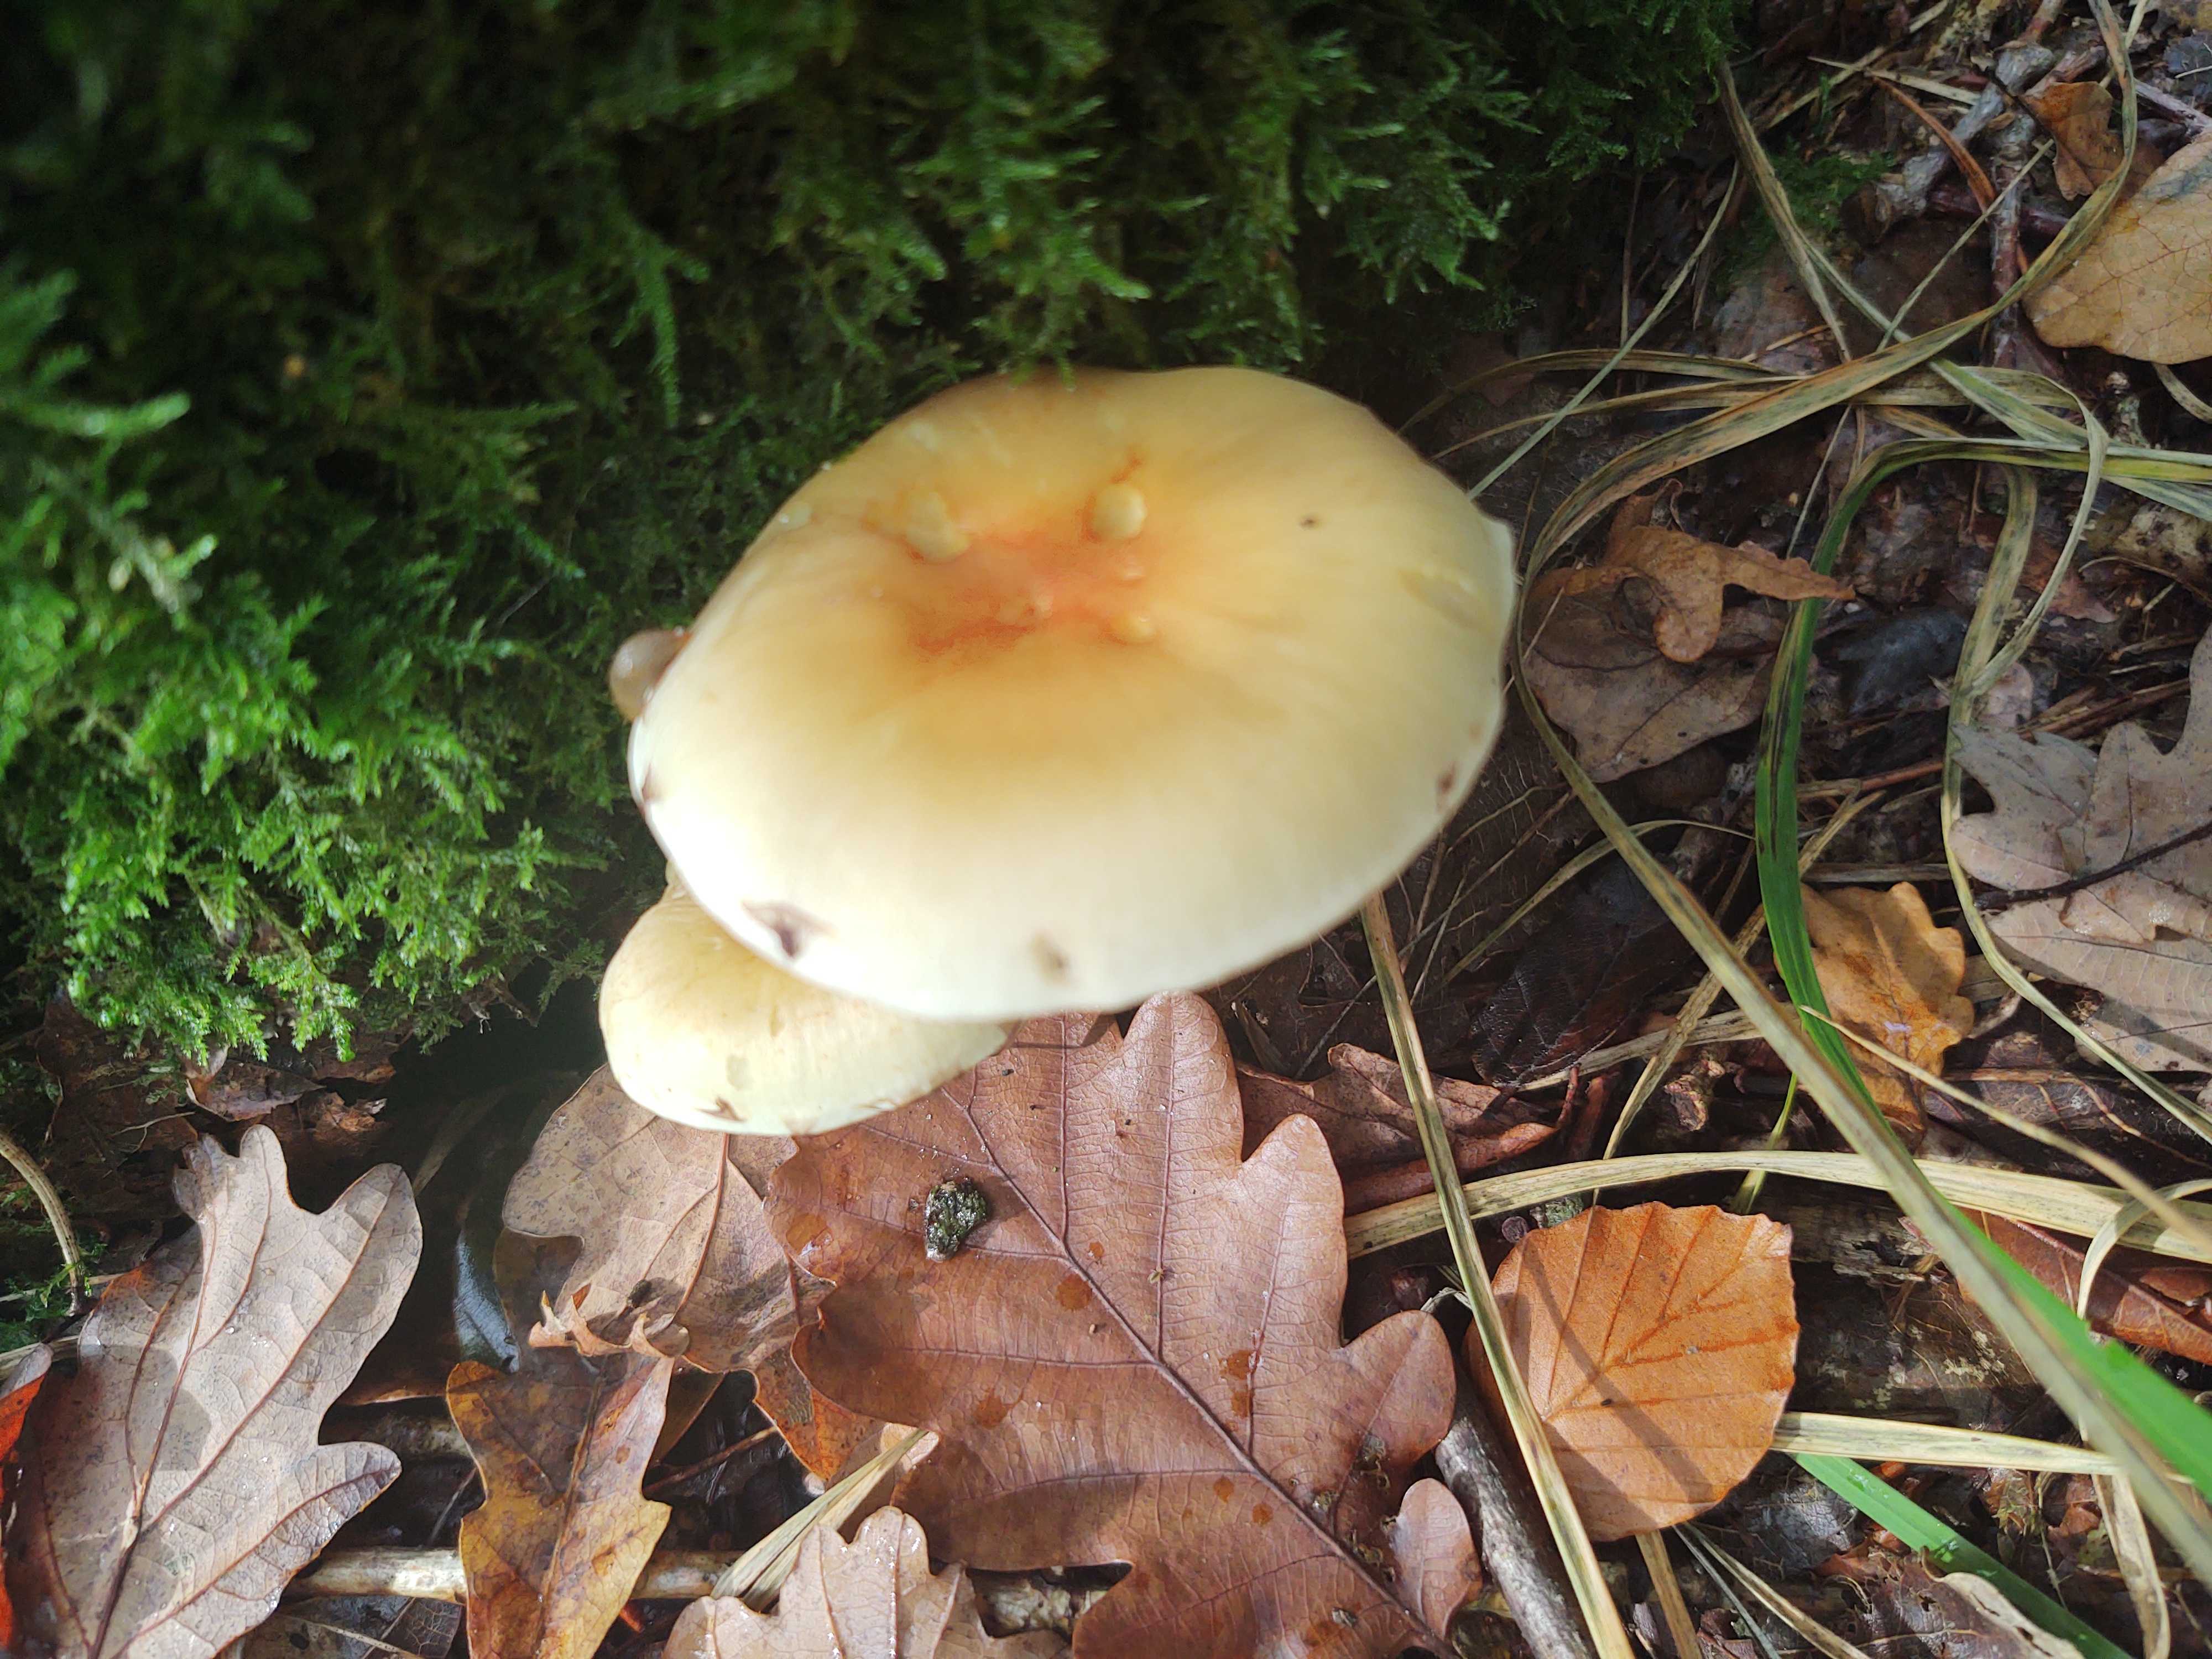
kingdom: Fungi
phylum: Basidiomycota
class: Agaricomycetes
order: Agaricales
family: Strophariaceae
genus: Hypholoma
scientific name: Hypholoma
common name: svovlhat
